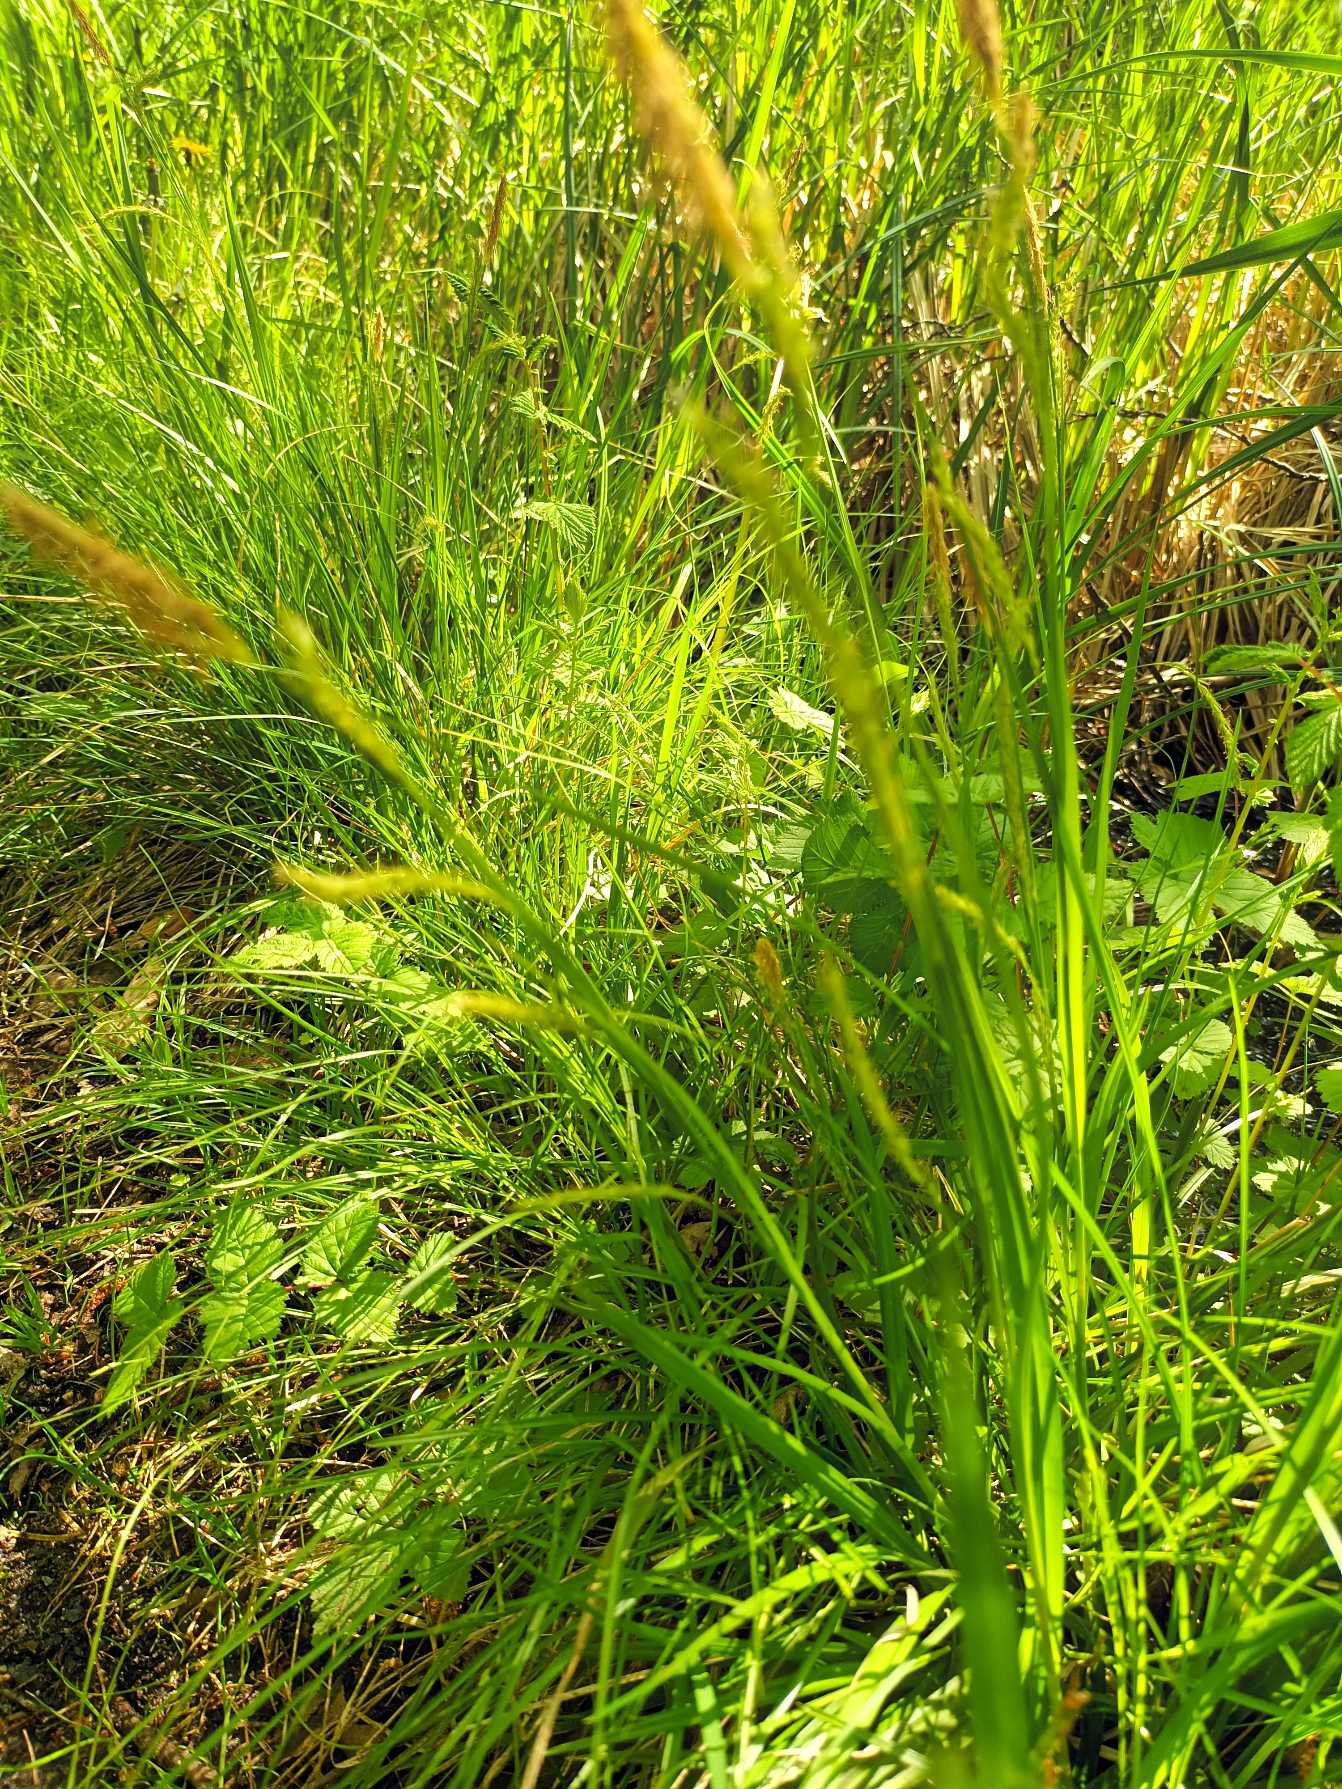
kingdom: Plantae
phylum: Tracheophyta
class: Liliopsida
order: Poales
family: Cyperaceae
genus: Carex
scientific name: Carex sylvatica
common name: Skov-star
